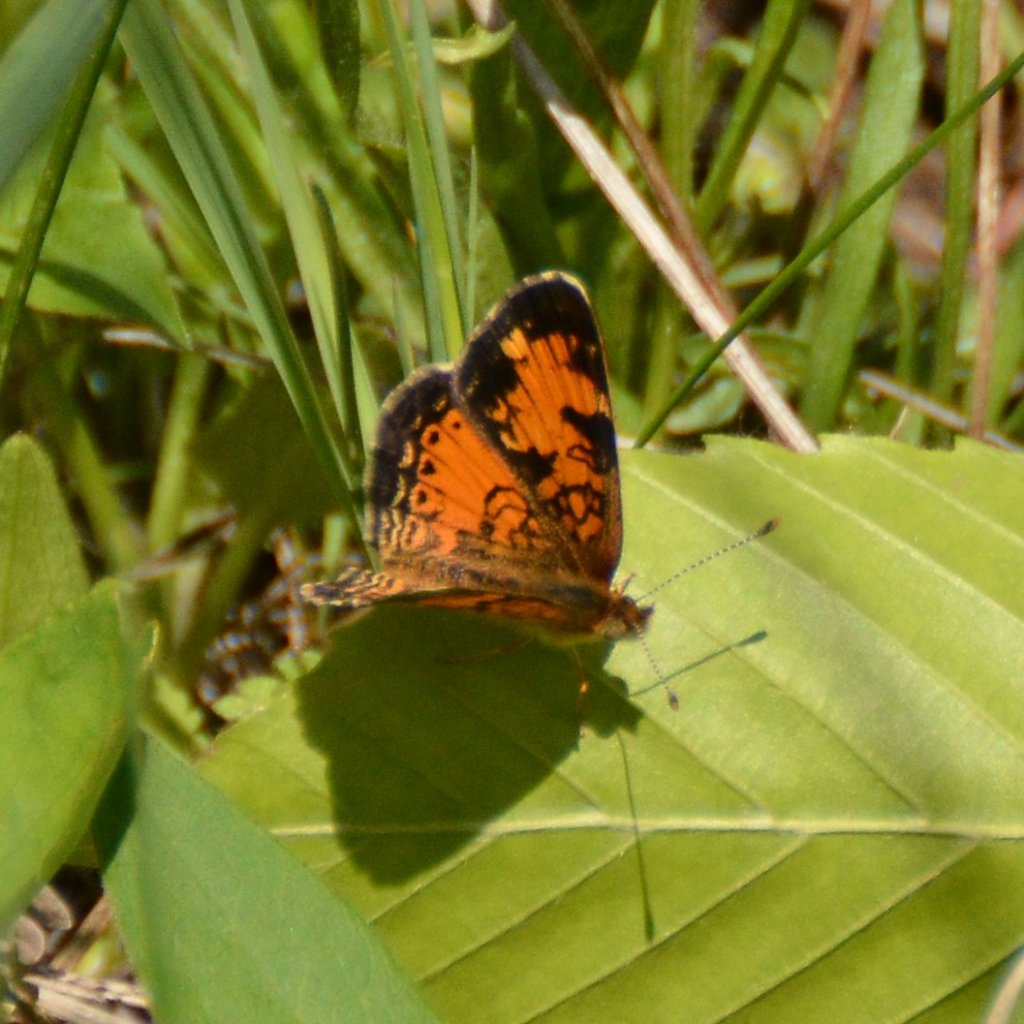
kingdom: Animalia
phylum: Arthropoda
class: Insecta
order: Lepidoptera
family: Nymphalidae
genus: Phyciodes
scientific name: Phyciodes tharos
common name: Northern Crescent
